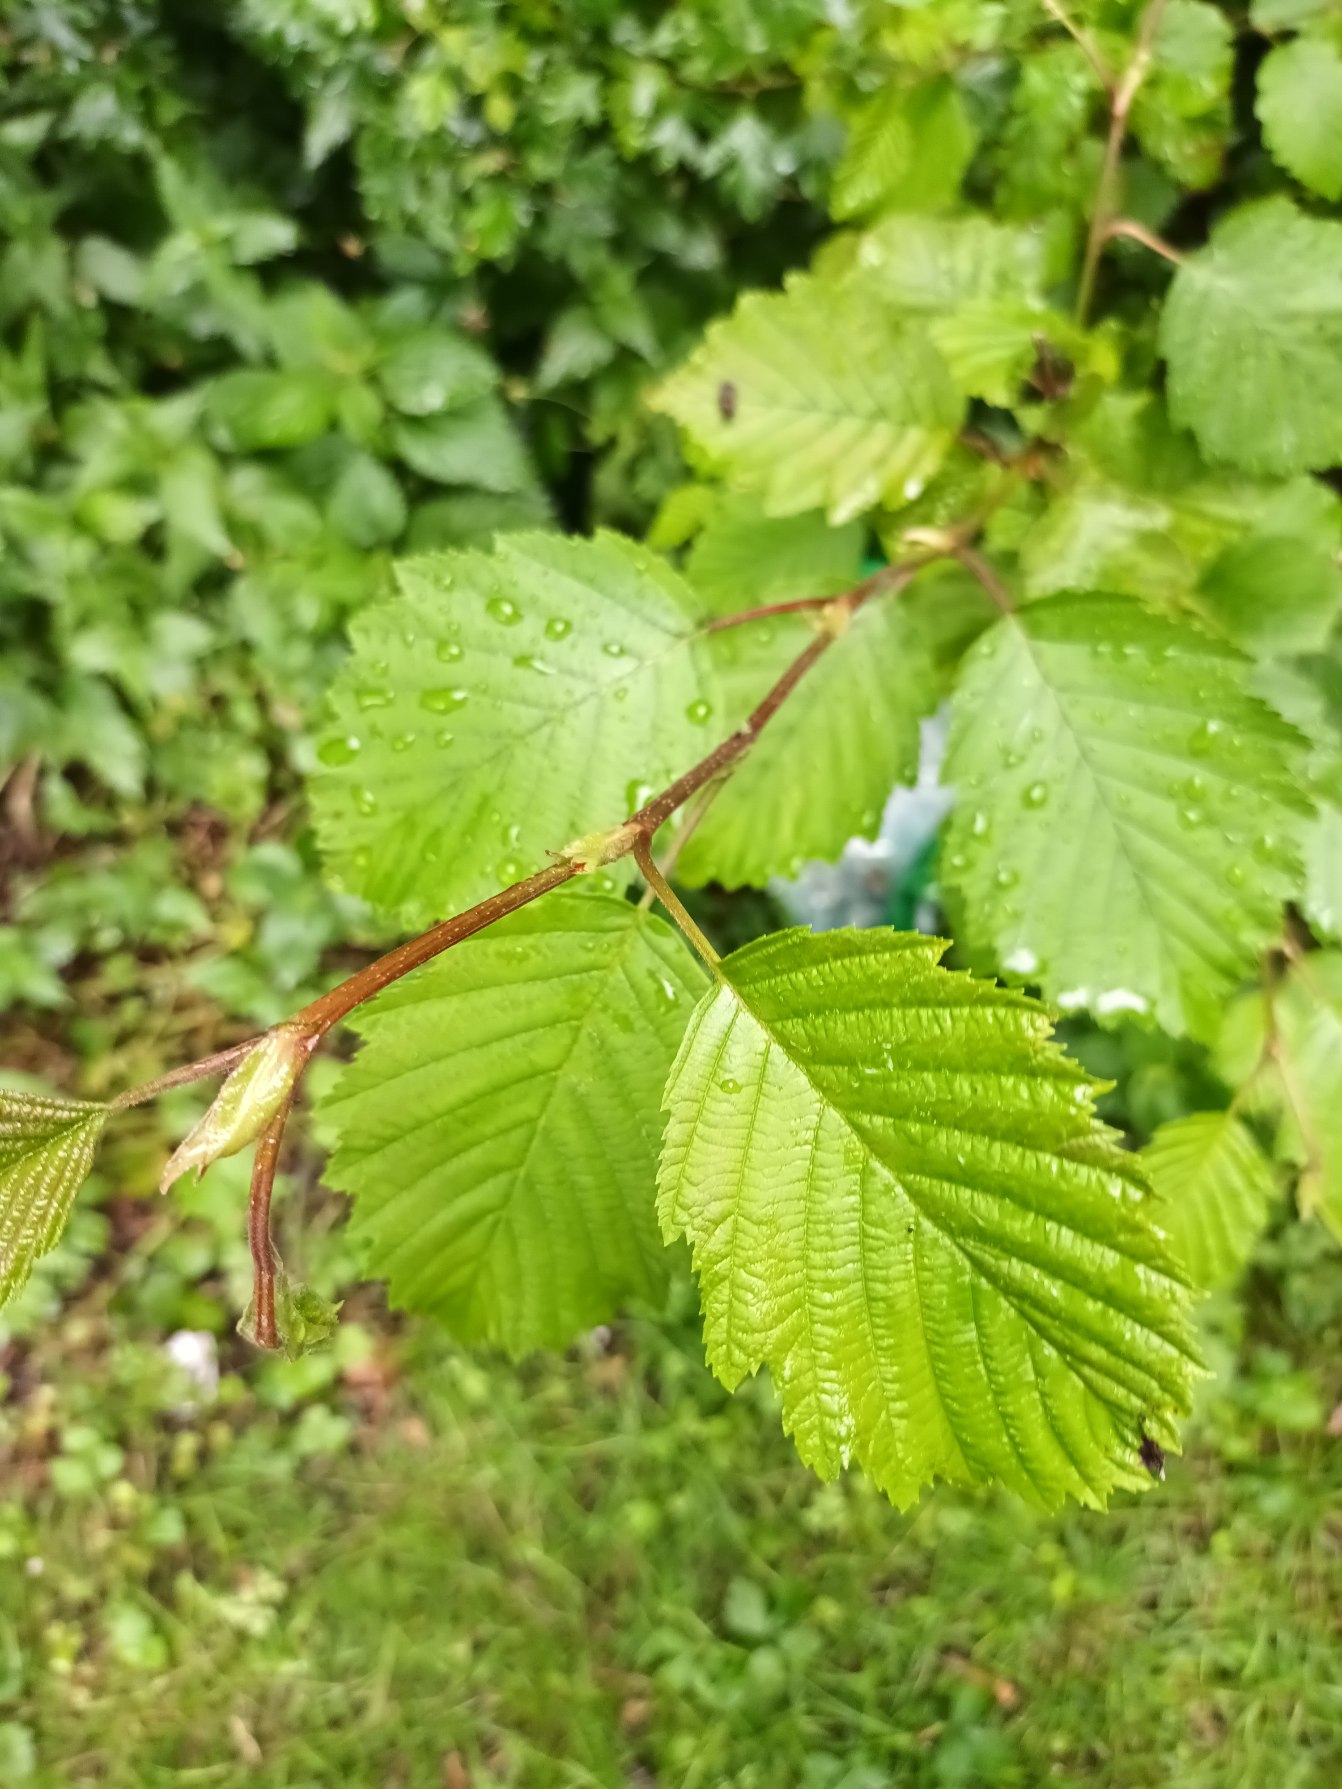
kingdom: Plantae
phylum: Tracheophyta
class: Magnoliopsida
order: Fagales
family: Betulaceae
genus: Alnus
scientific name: Alnus incana
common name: Grå-el/hvid-el
